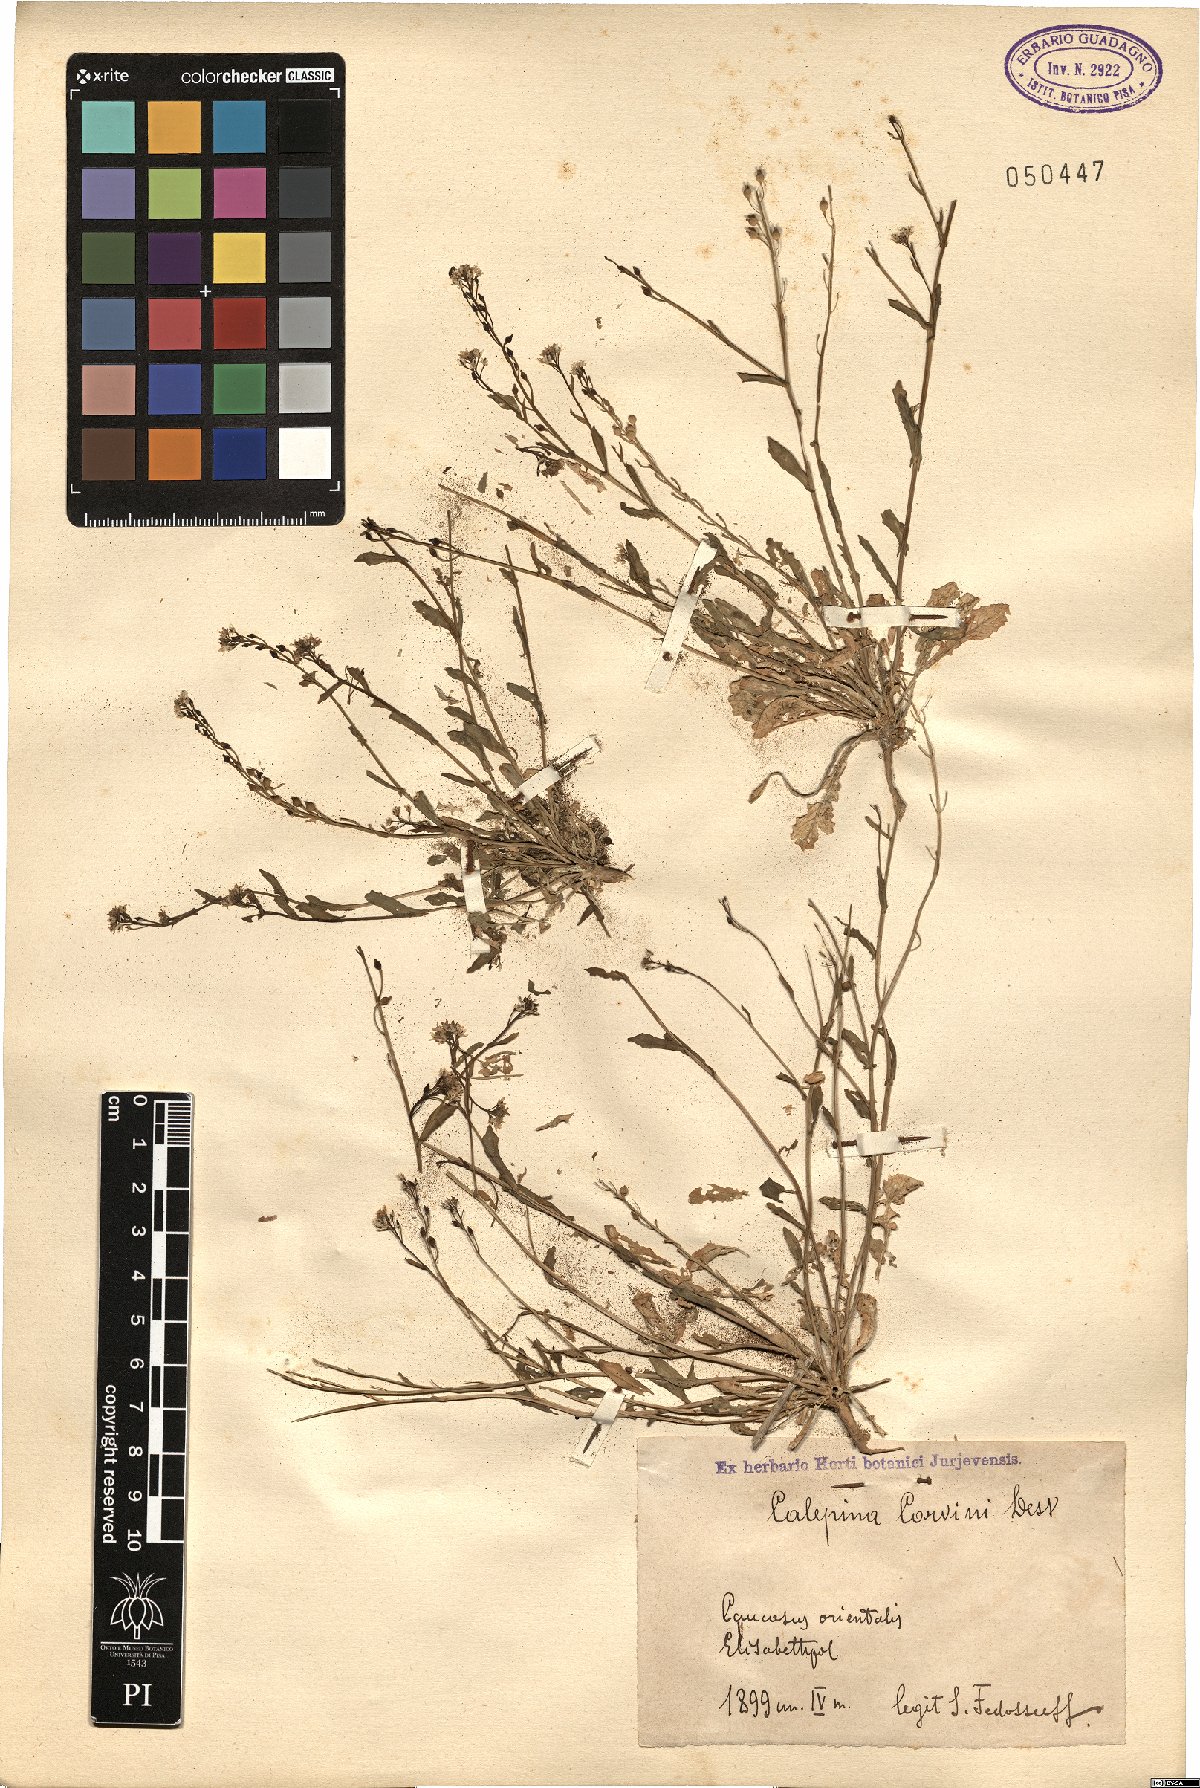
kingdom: Plantae
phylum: Tracheophyta
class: Magnoliopsida
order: Brassicales
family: Brassicaceae
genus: Calepina
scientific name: Calepina irregularis
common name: White ballmustard
